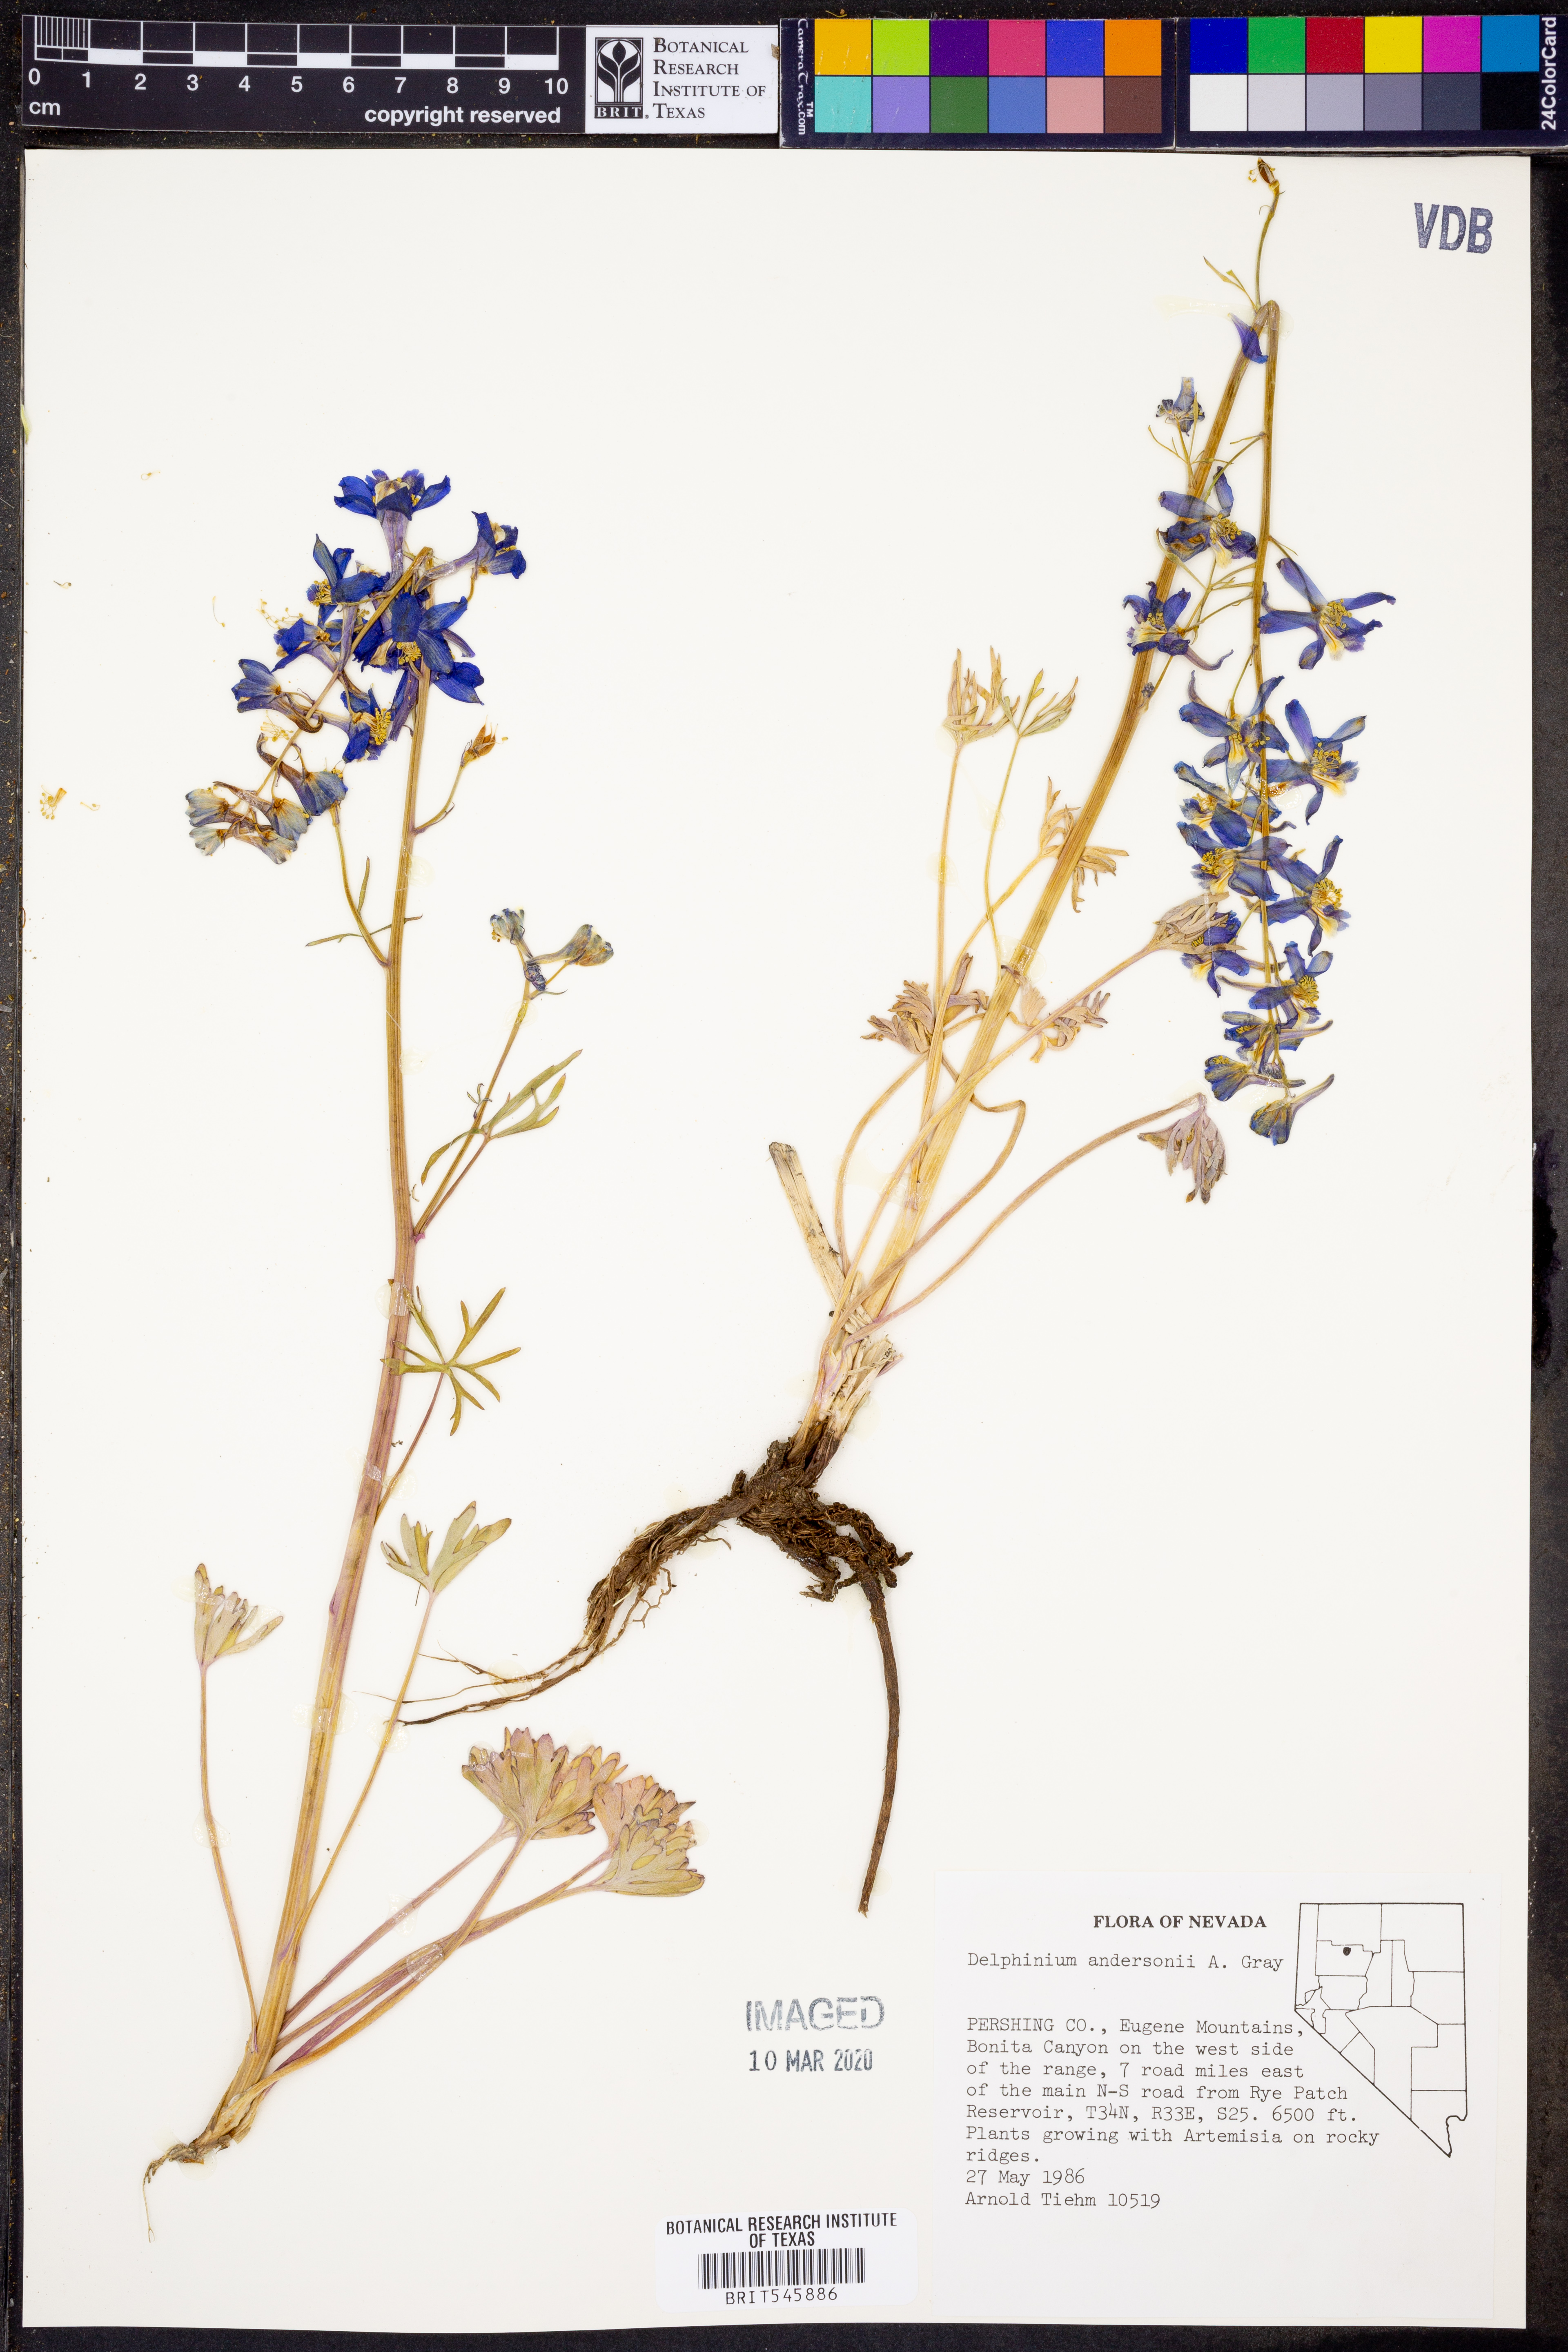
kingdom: Plantae
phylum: Tracheophyta
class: Magnoliopsida
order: Ranunculales
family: Ranunculaceae
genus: Delphinium
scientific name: Delphinium andersonii
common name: Anderson's larkspur
